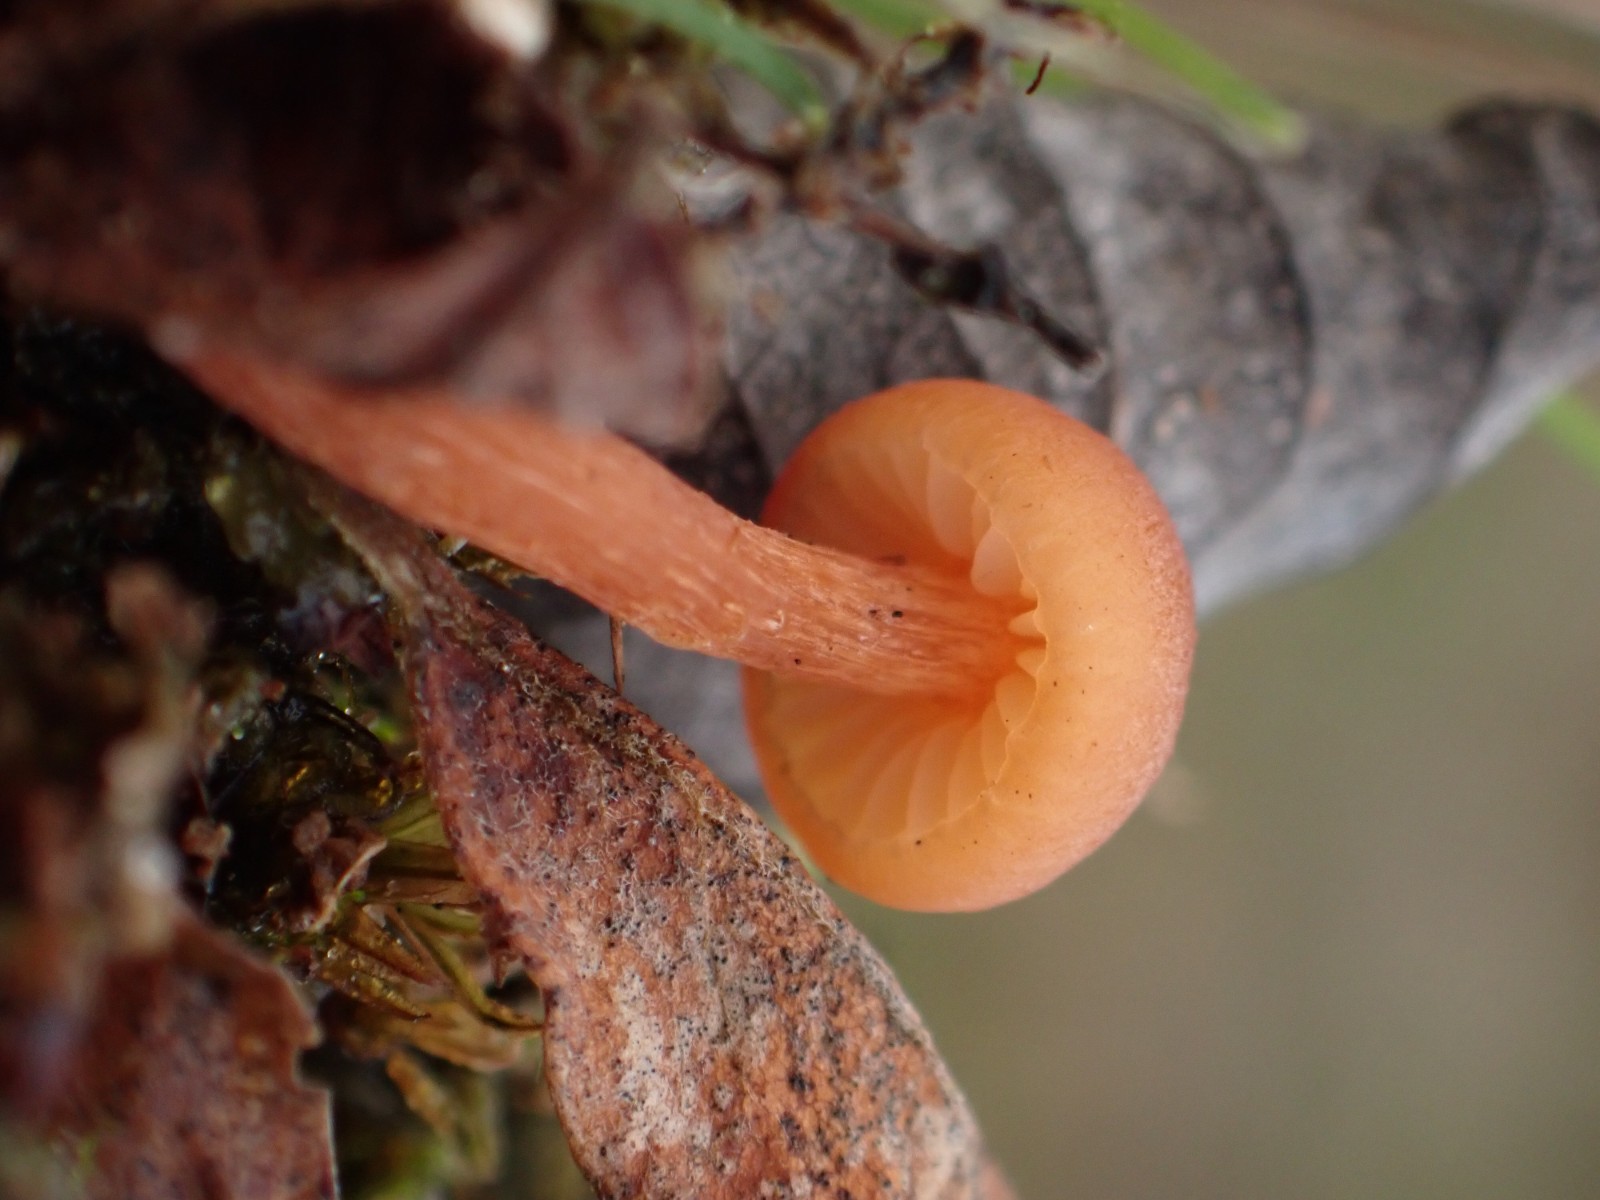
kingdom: Fungi
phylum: Basidiomycota
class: Agaricomycetes
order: Agaricales
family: Hydnangiaceae
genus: Laccaria
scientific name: Laccaria laccata
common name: rød ametysthat
